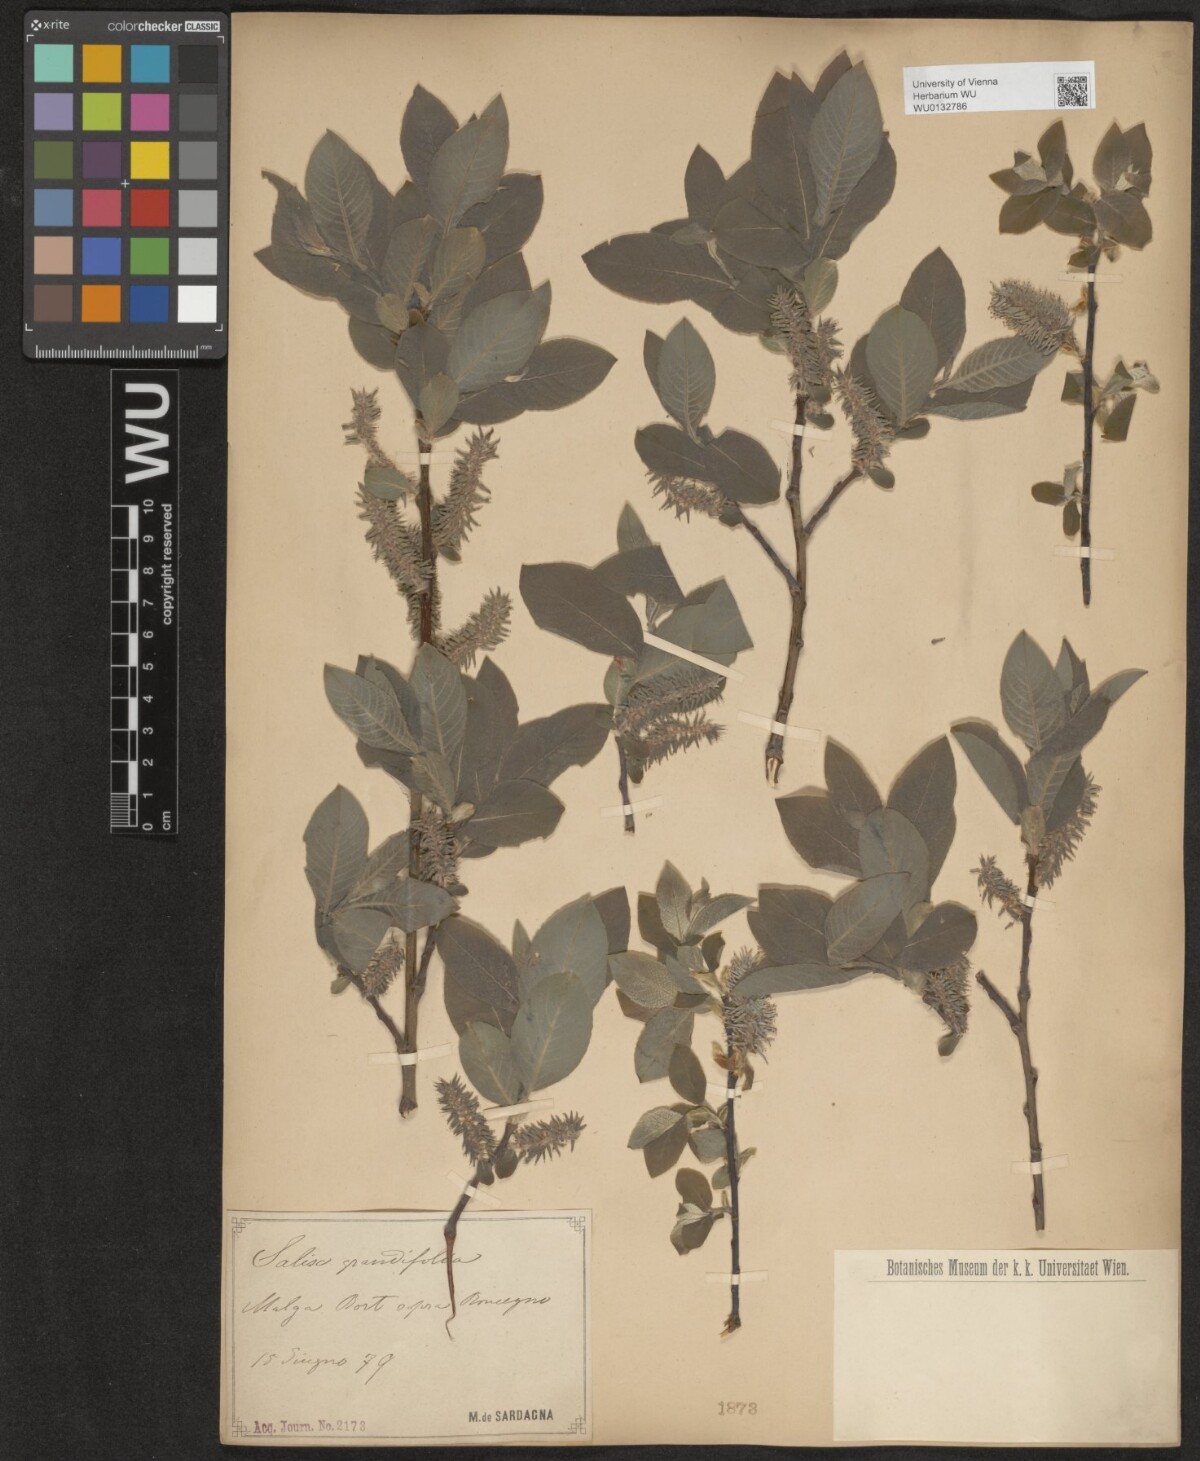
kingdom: Plantae
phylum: Tracheophyta
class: Magnoliopsida
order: Malpighiales
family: Salicaceae
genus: Salix
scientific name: Salix appendiculata
